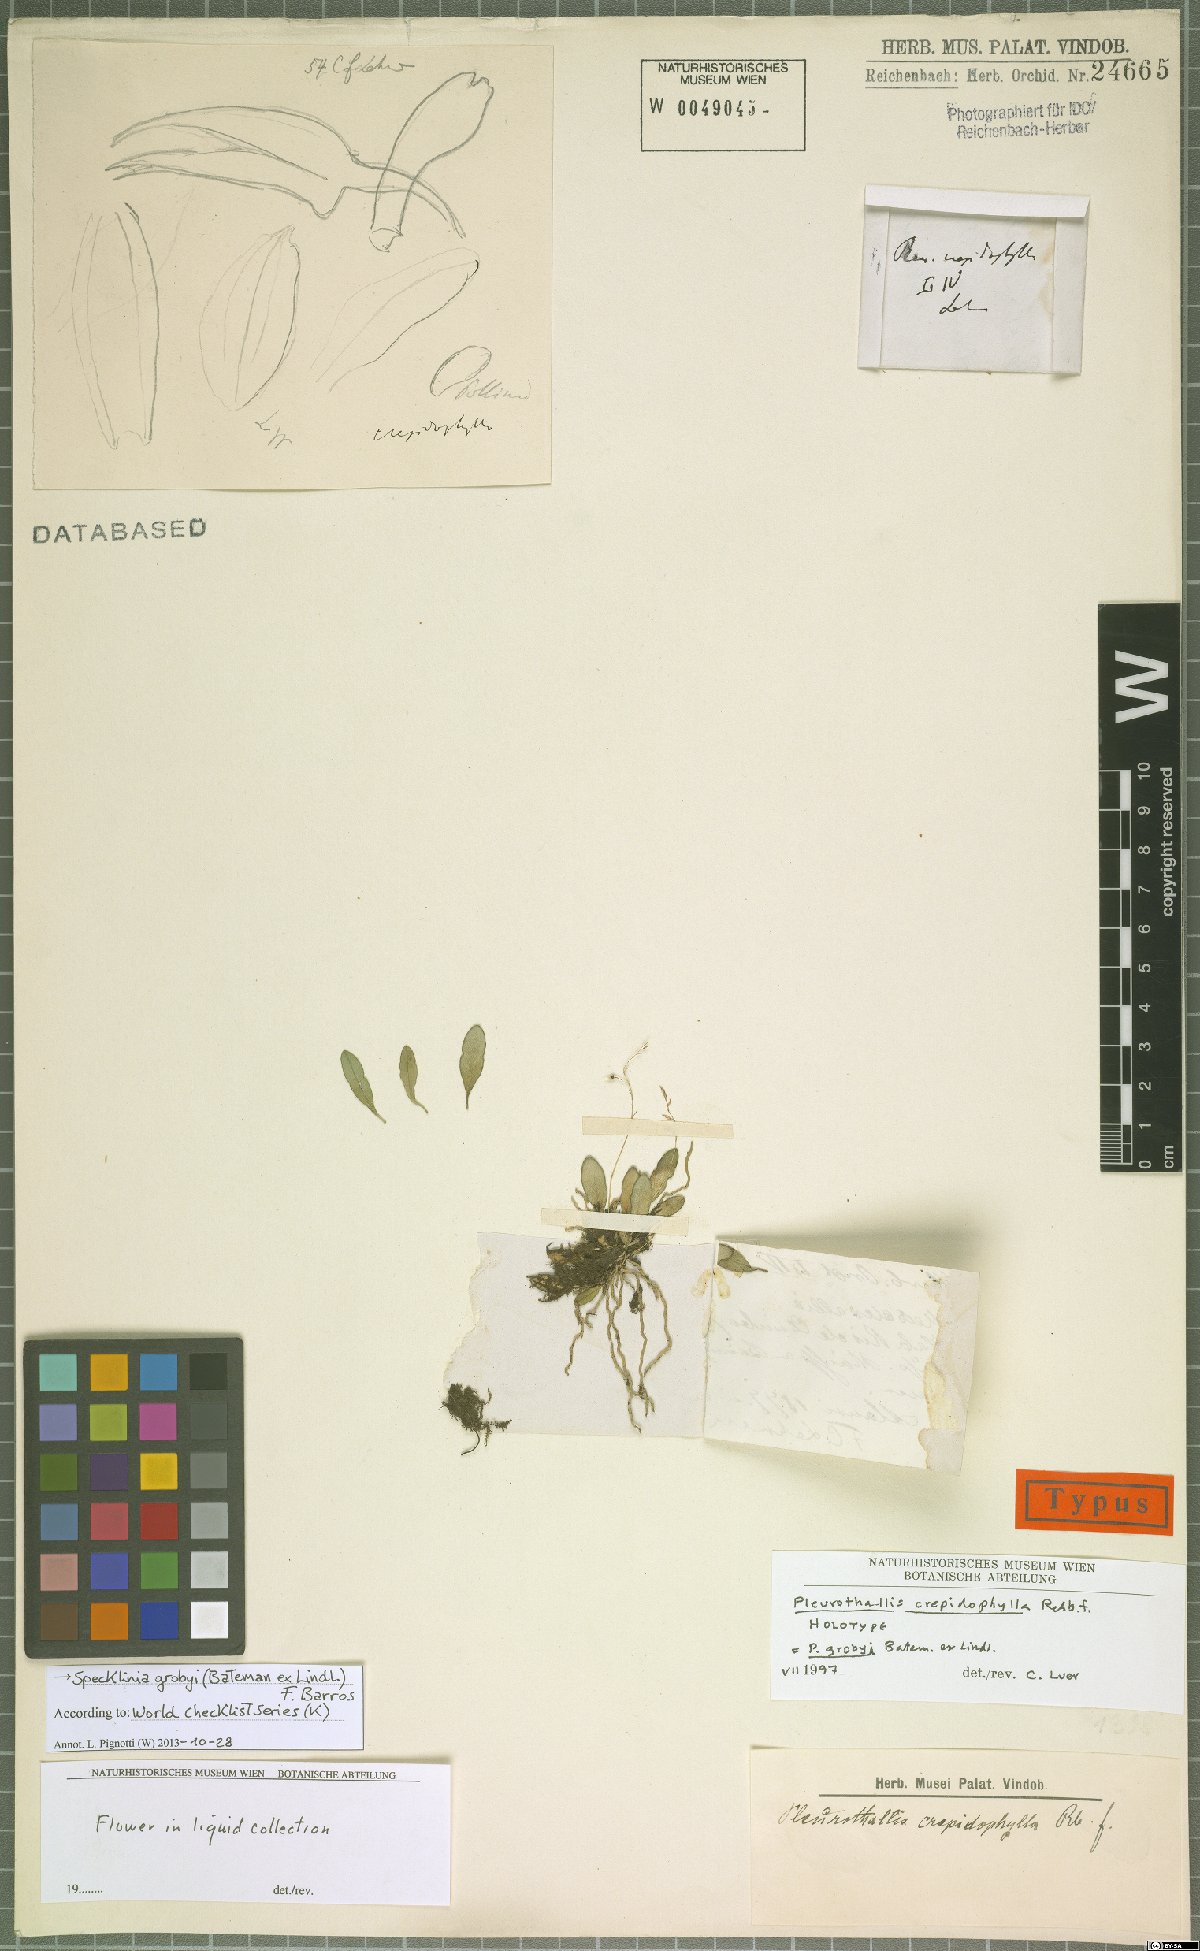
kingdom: Plantae
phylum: Tracheophyta
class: Liliopsida
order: Asparagales
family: Orchidaceae
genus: Specklinia
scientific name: Specklinia grobyi
